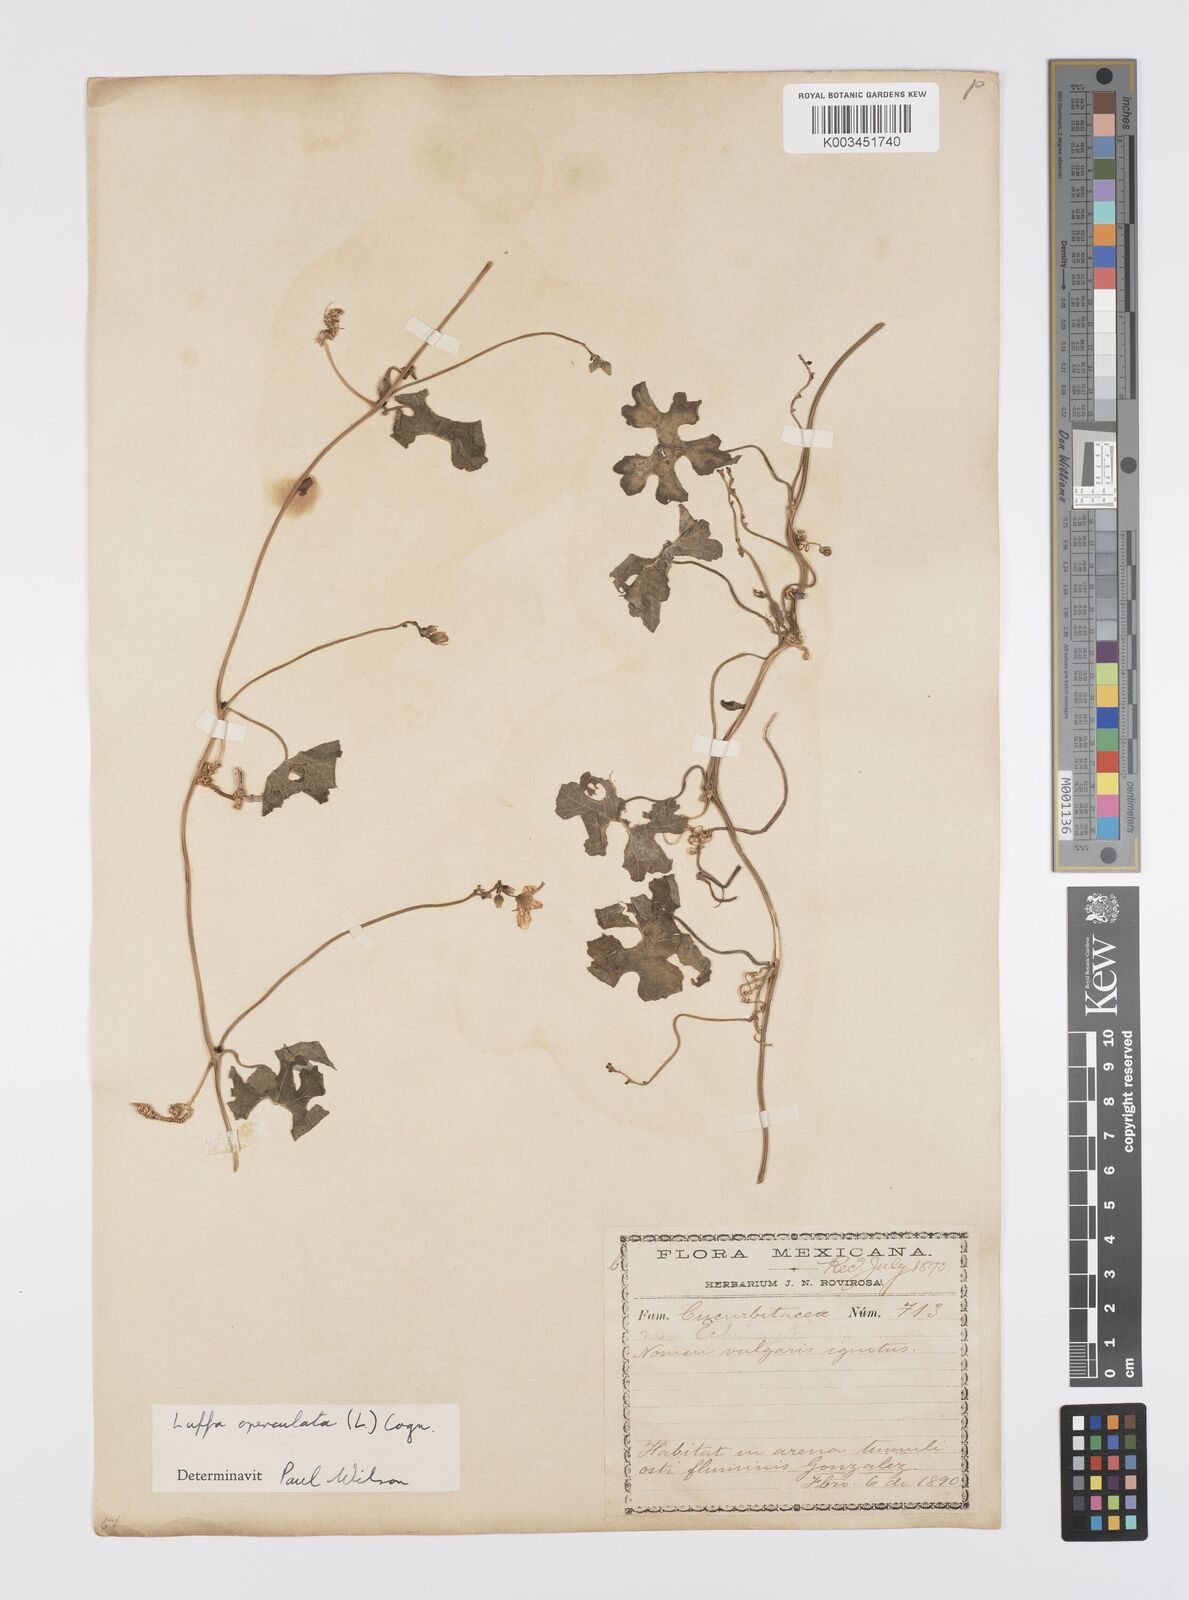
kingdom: Plantae
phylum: Tracheophyta
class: Magnoliopsida
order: Cucurbitales
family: Cucurbitaceae
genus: Luffa
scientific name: Luffa quinquefolia
